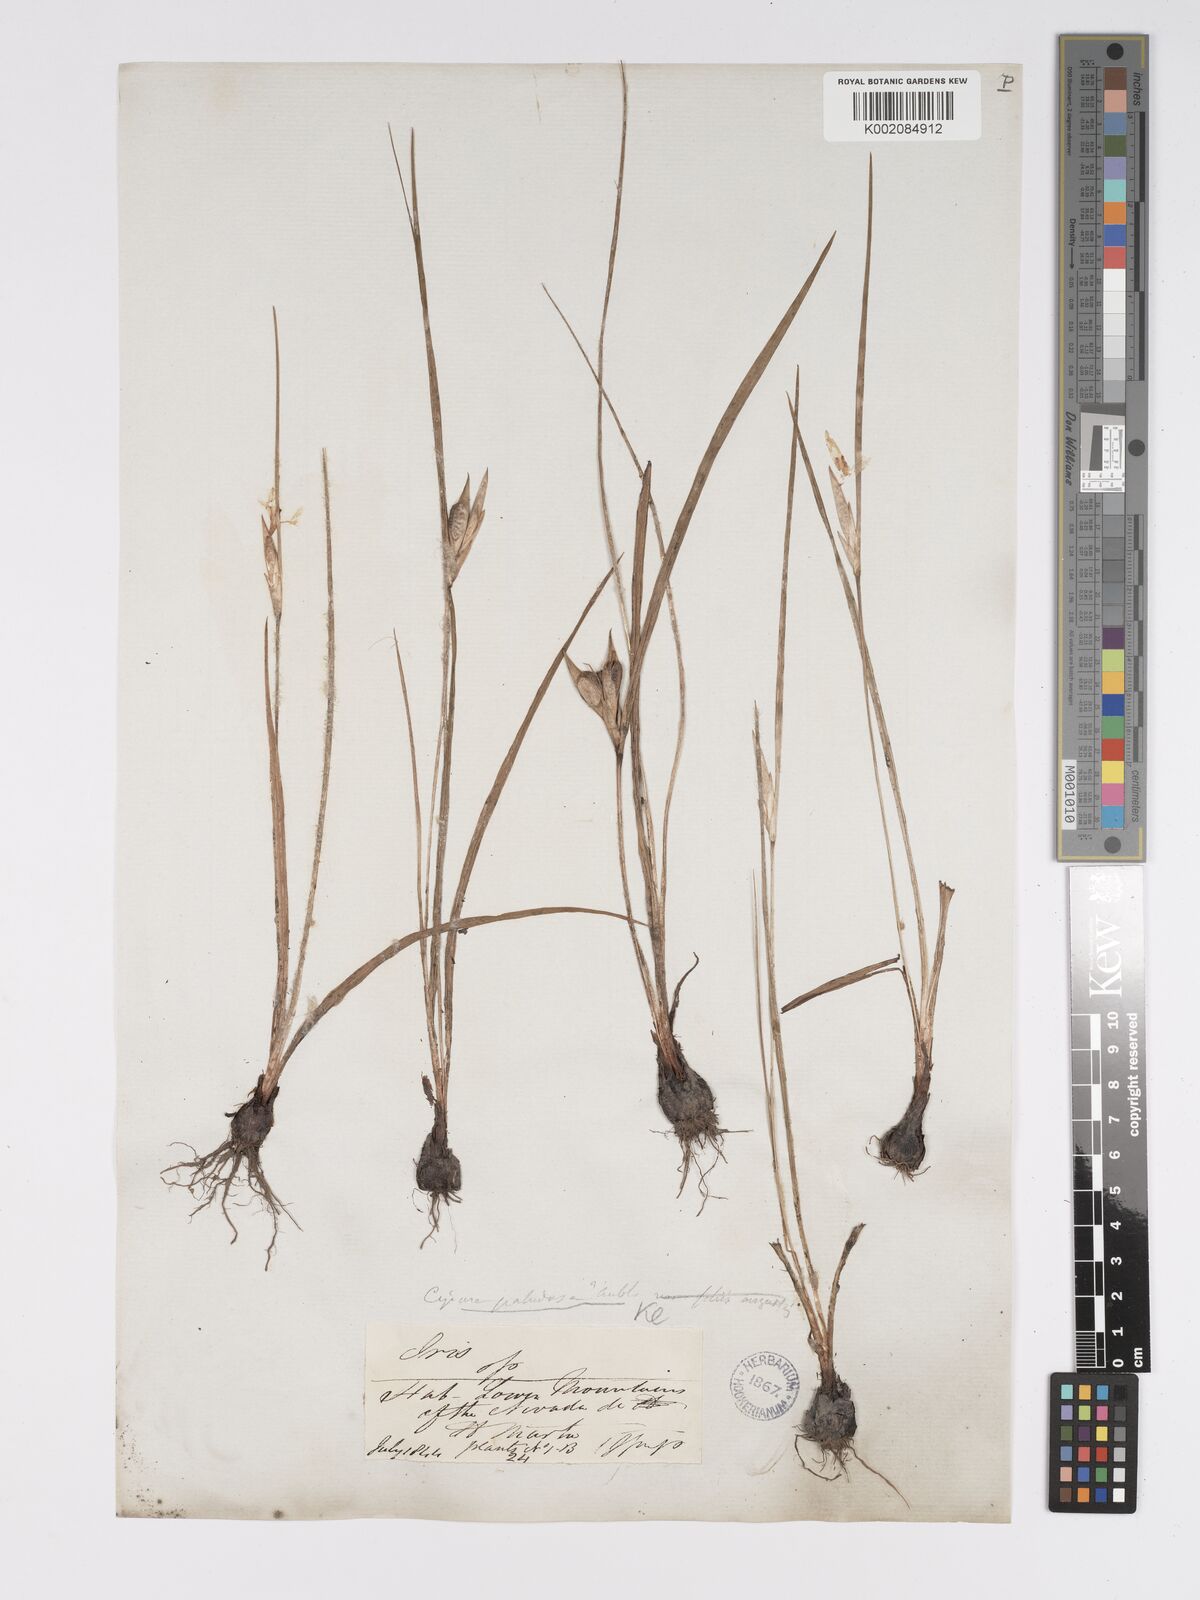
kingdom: Plantae
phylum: Tracheophyta
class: Liliopsida
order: Asparagales
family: Iridaceae
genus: Cipura
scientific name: Cipura
